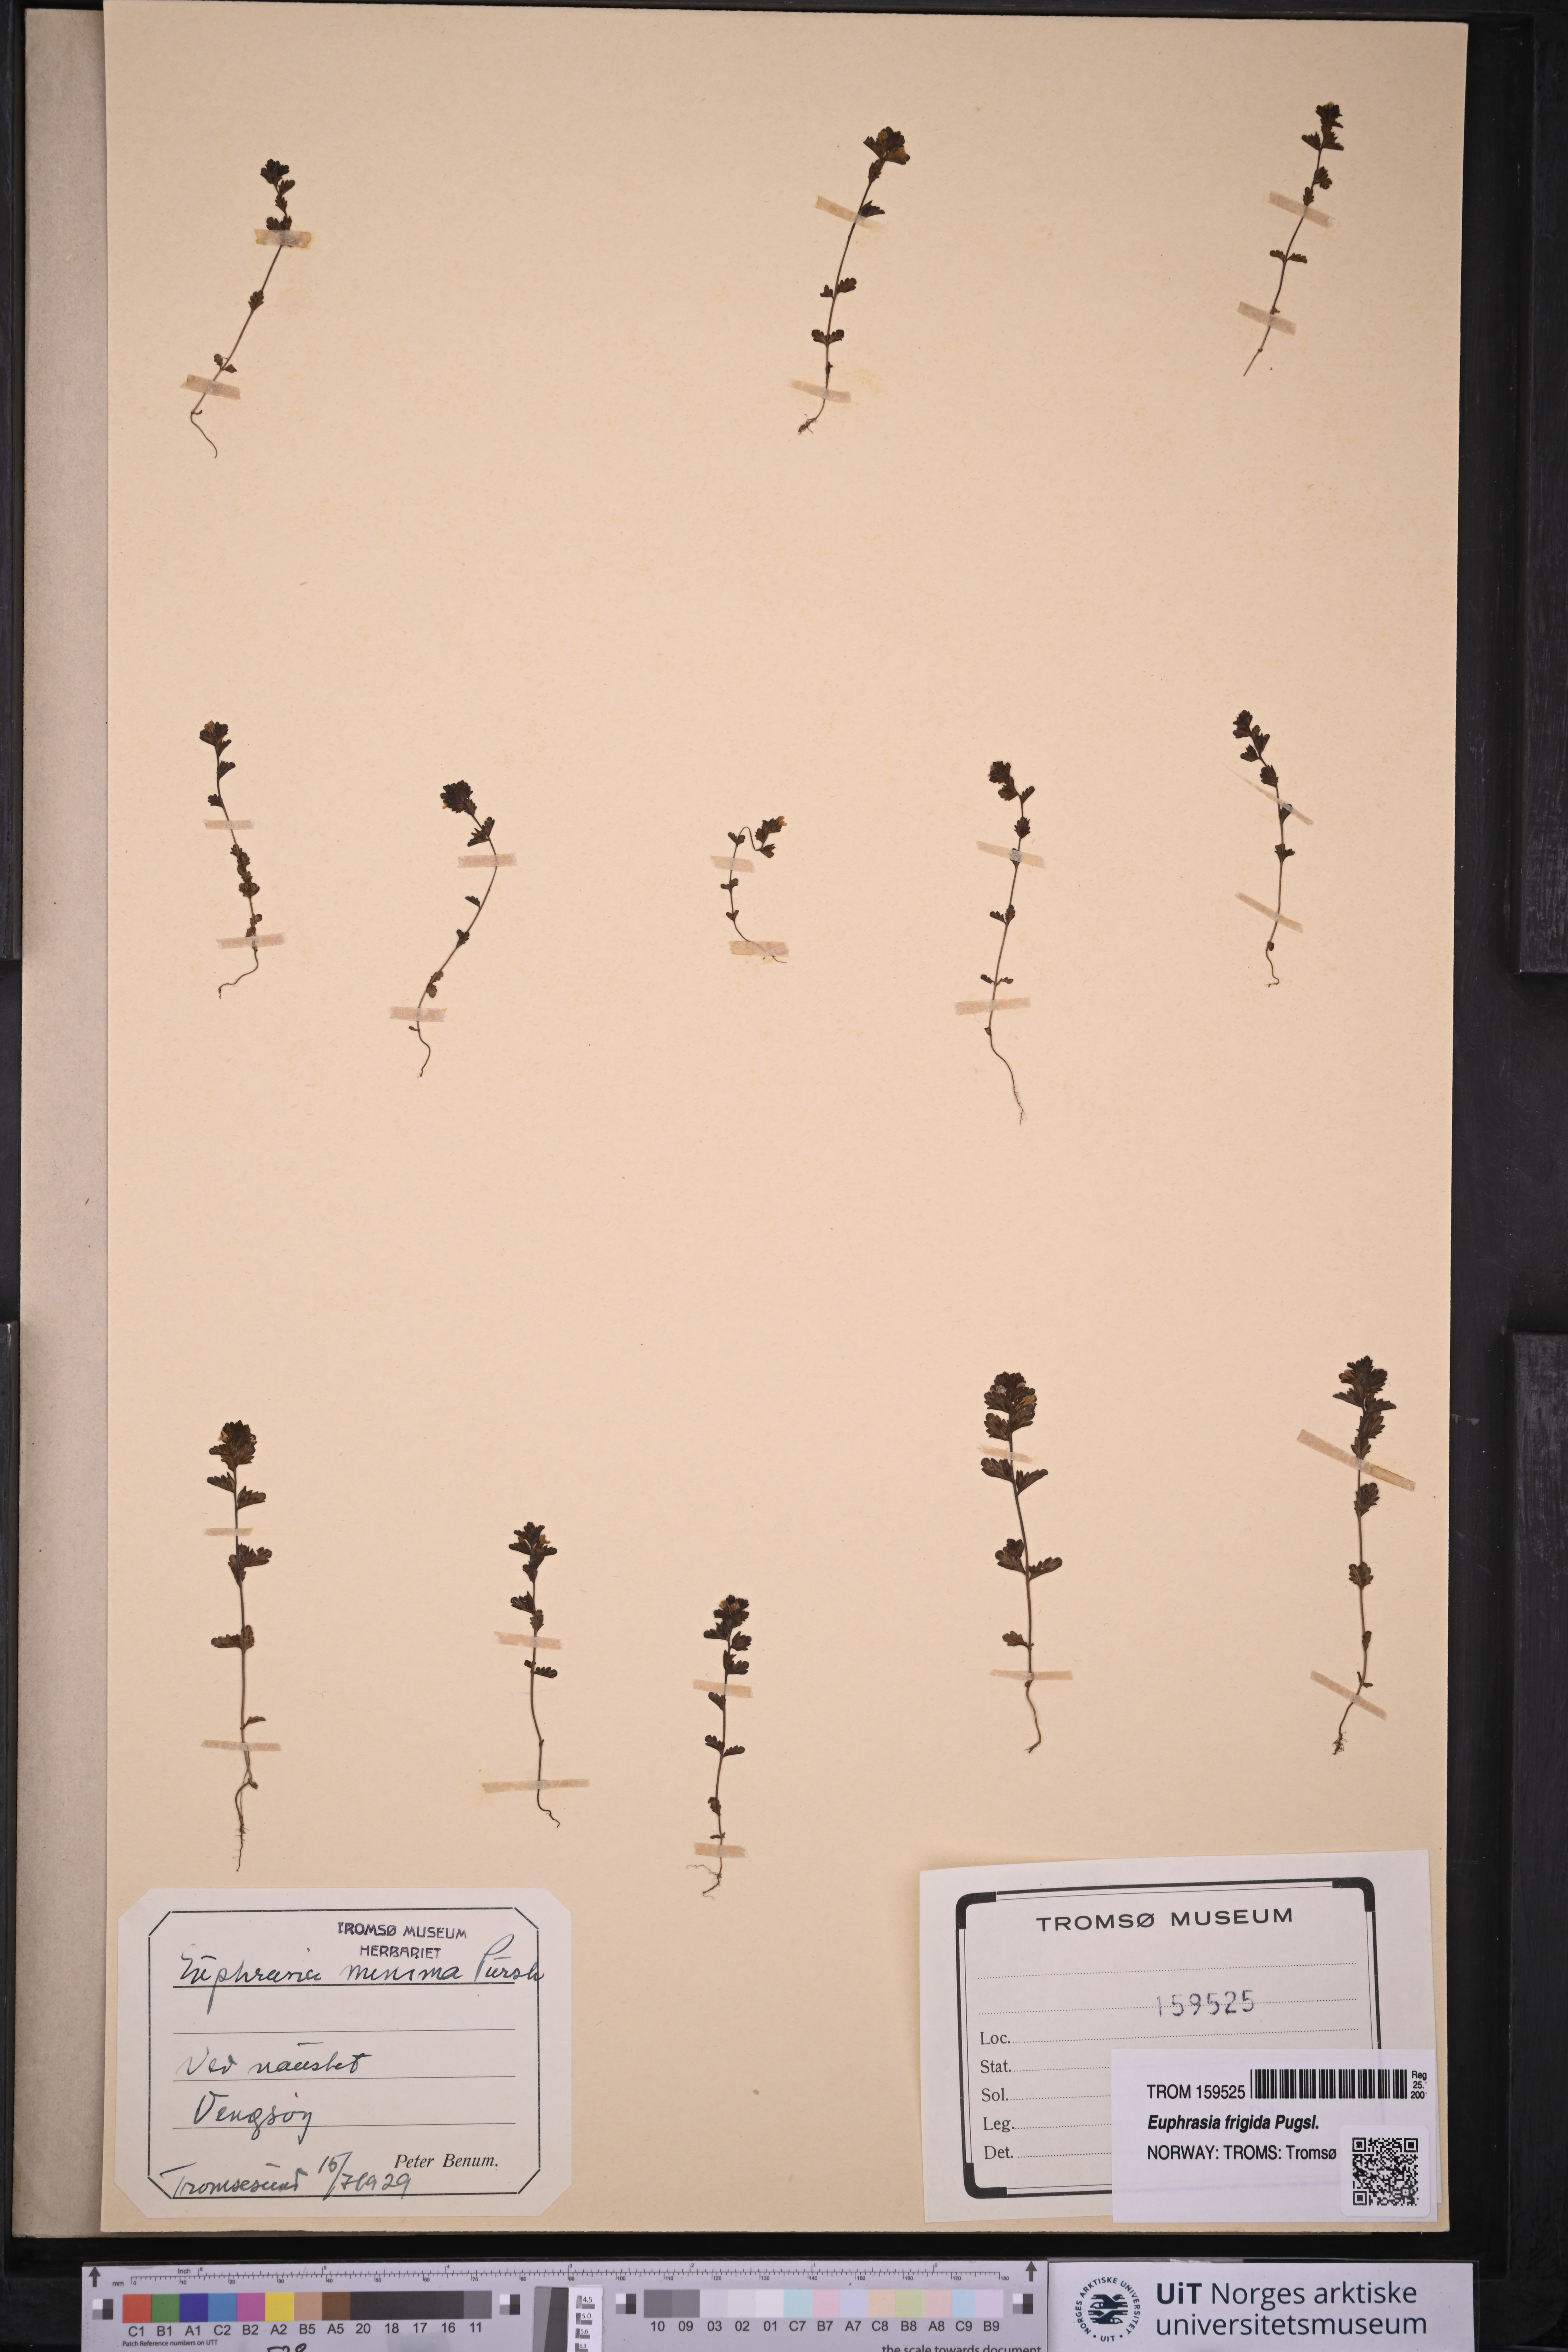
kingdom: Plantae
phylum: Tracheophyta
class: Magnoliopsida
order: Lamiales
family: Orobanchaceae
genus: Euphrasia
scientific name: Euphrasia wettsteinii
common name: Wettstein's eyebright
